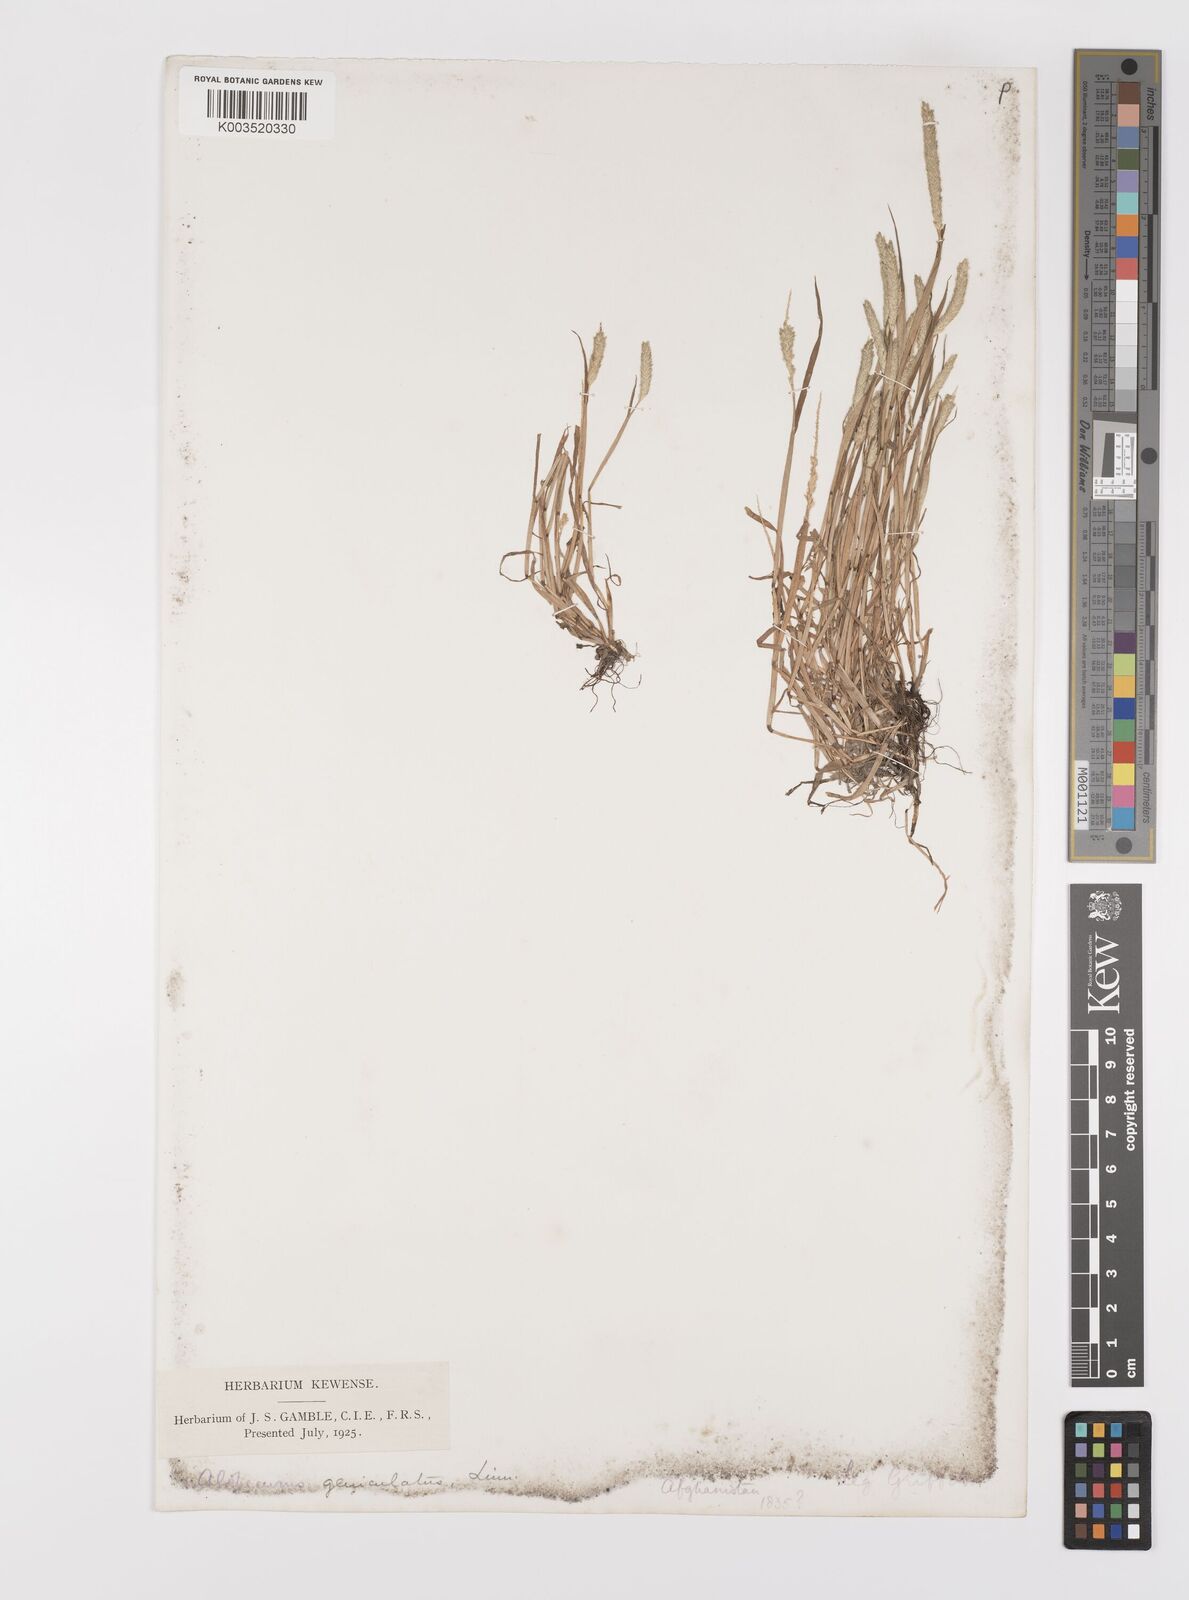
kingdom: Plantae
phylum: Tracheophyta
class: Liliopsida
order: Poales
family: Poaceae
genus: Alopecurus
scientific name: Alopecurus geniculatus
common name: Water foxtail
